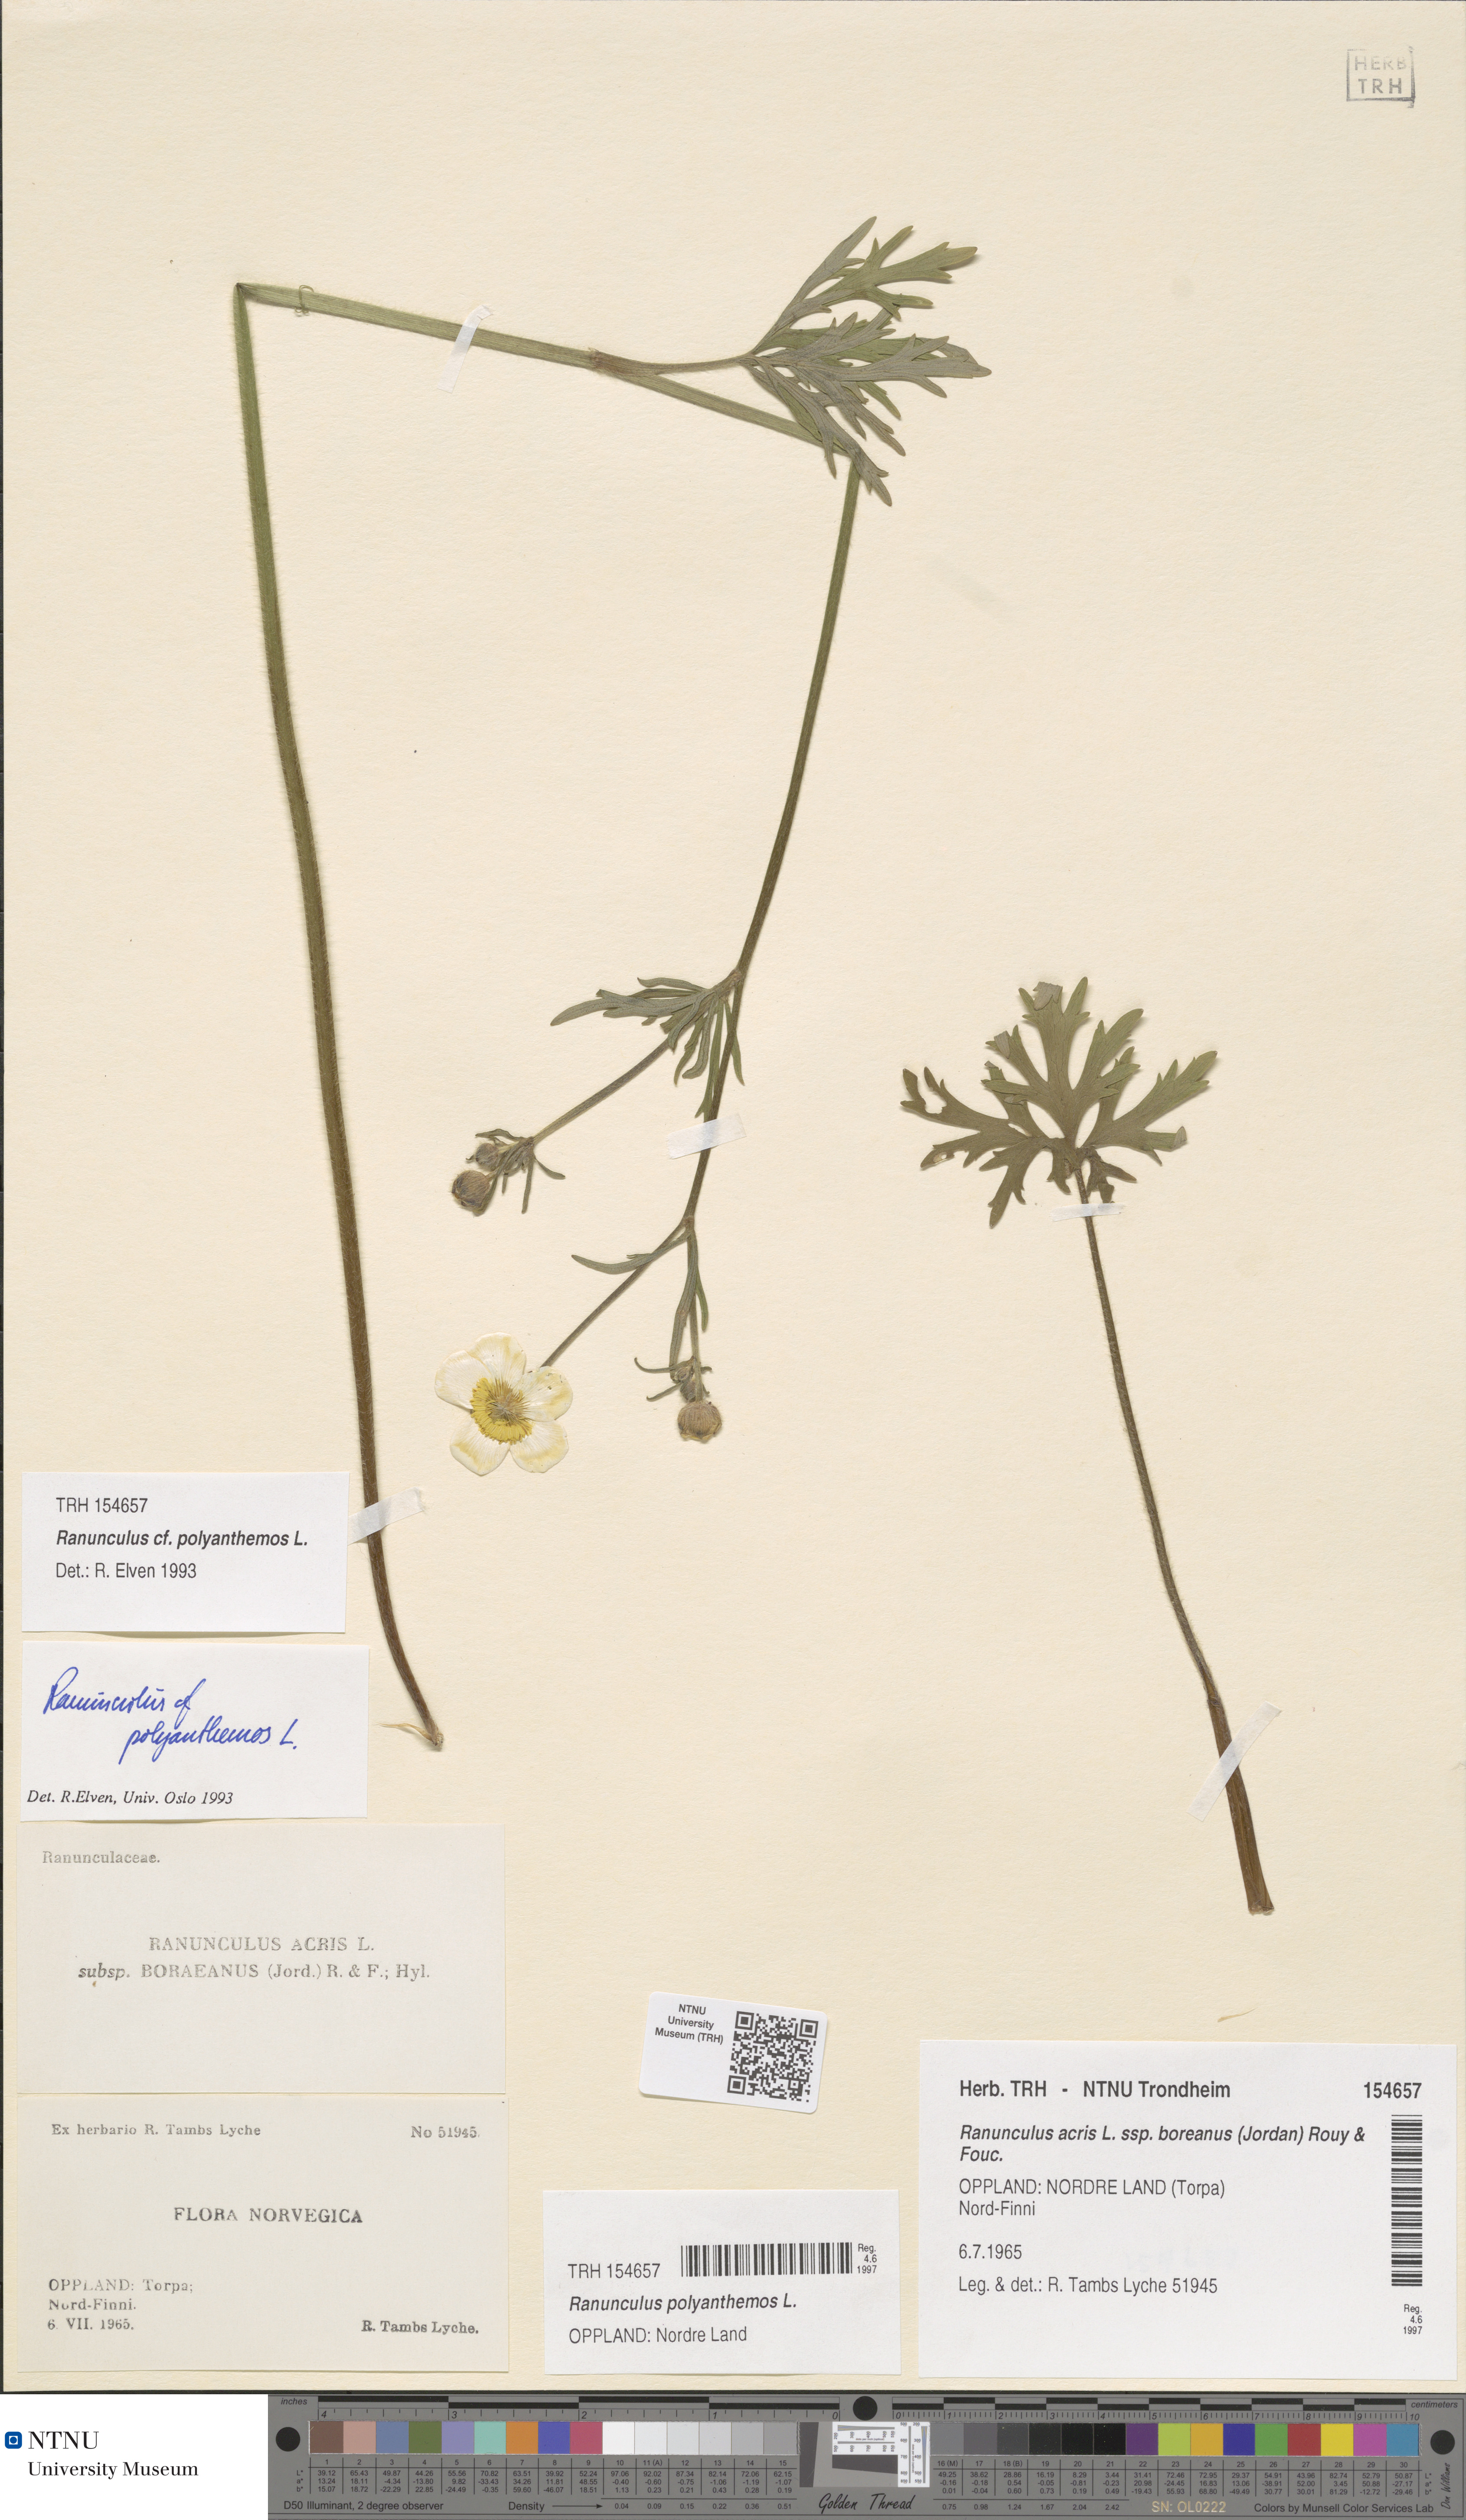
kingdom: Plantae
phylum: Tracheophyta
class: Magnoliopsida
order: Ranunculales
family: Ranunculaceae
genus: Ranunculus
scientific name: Ranunculus polyanthemos
